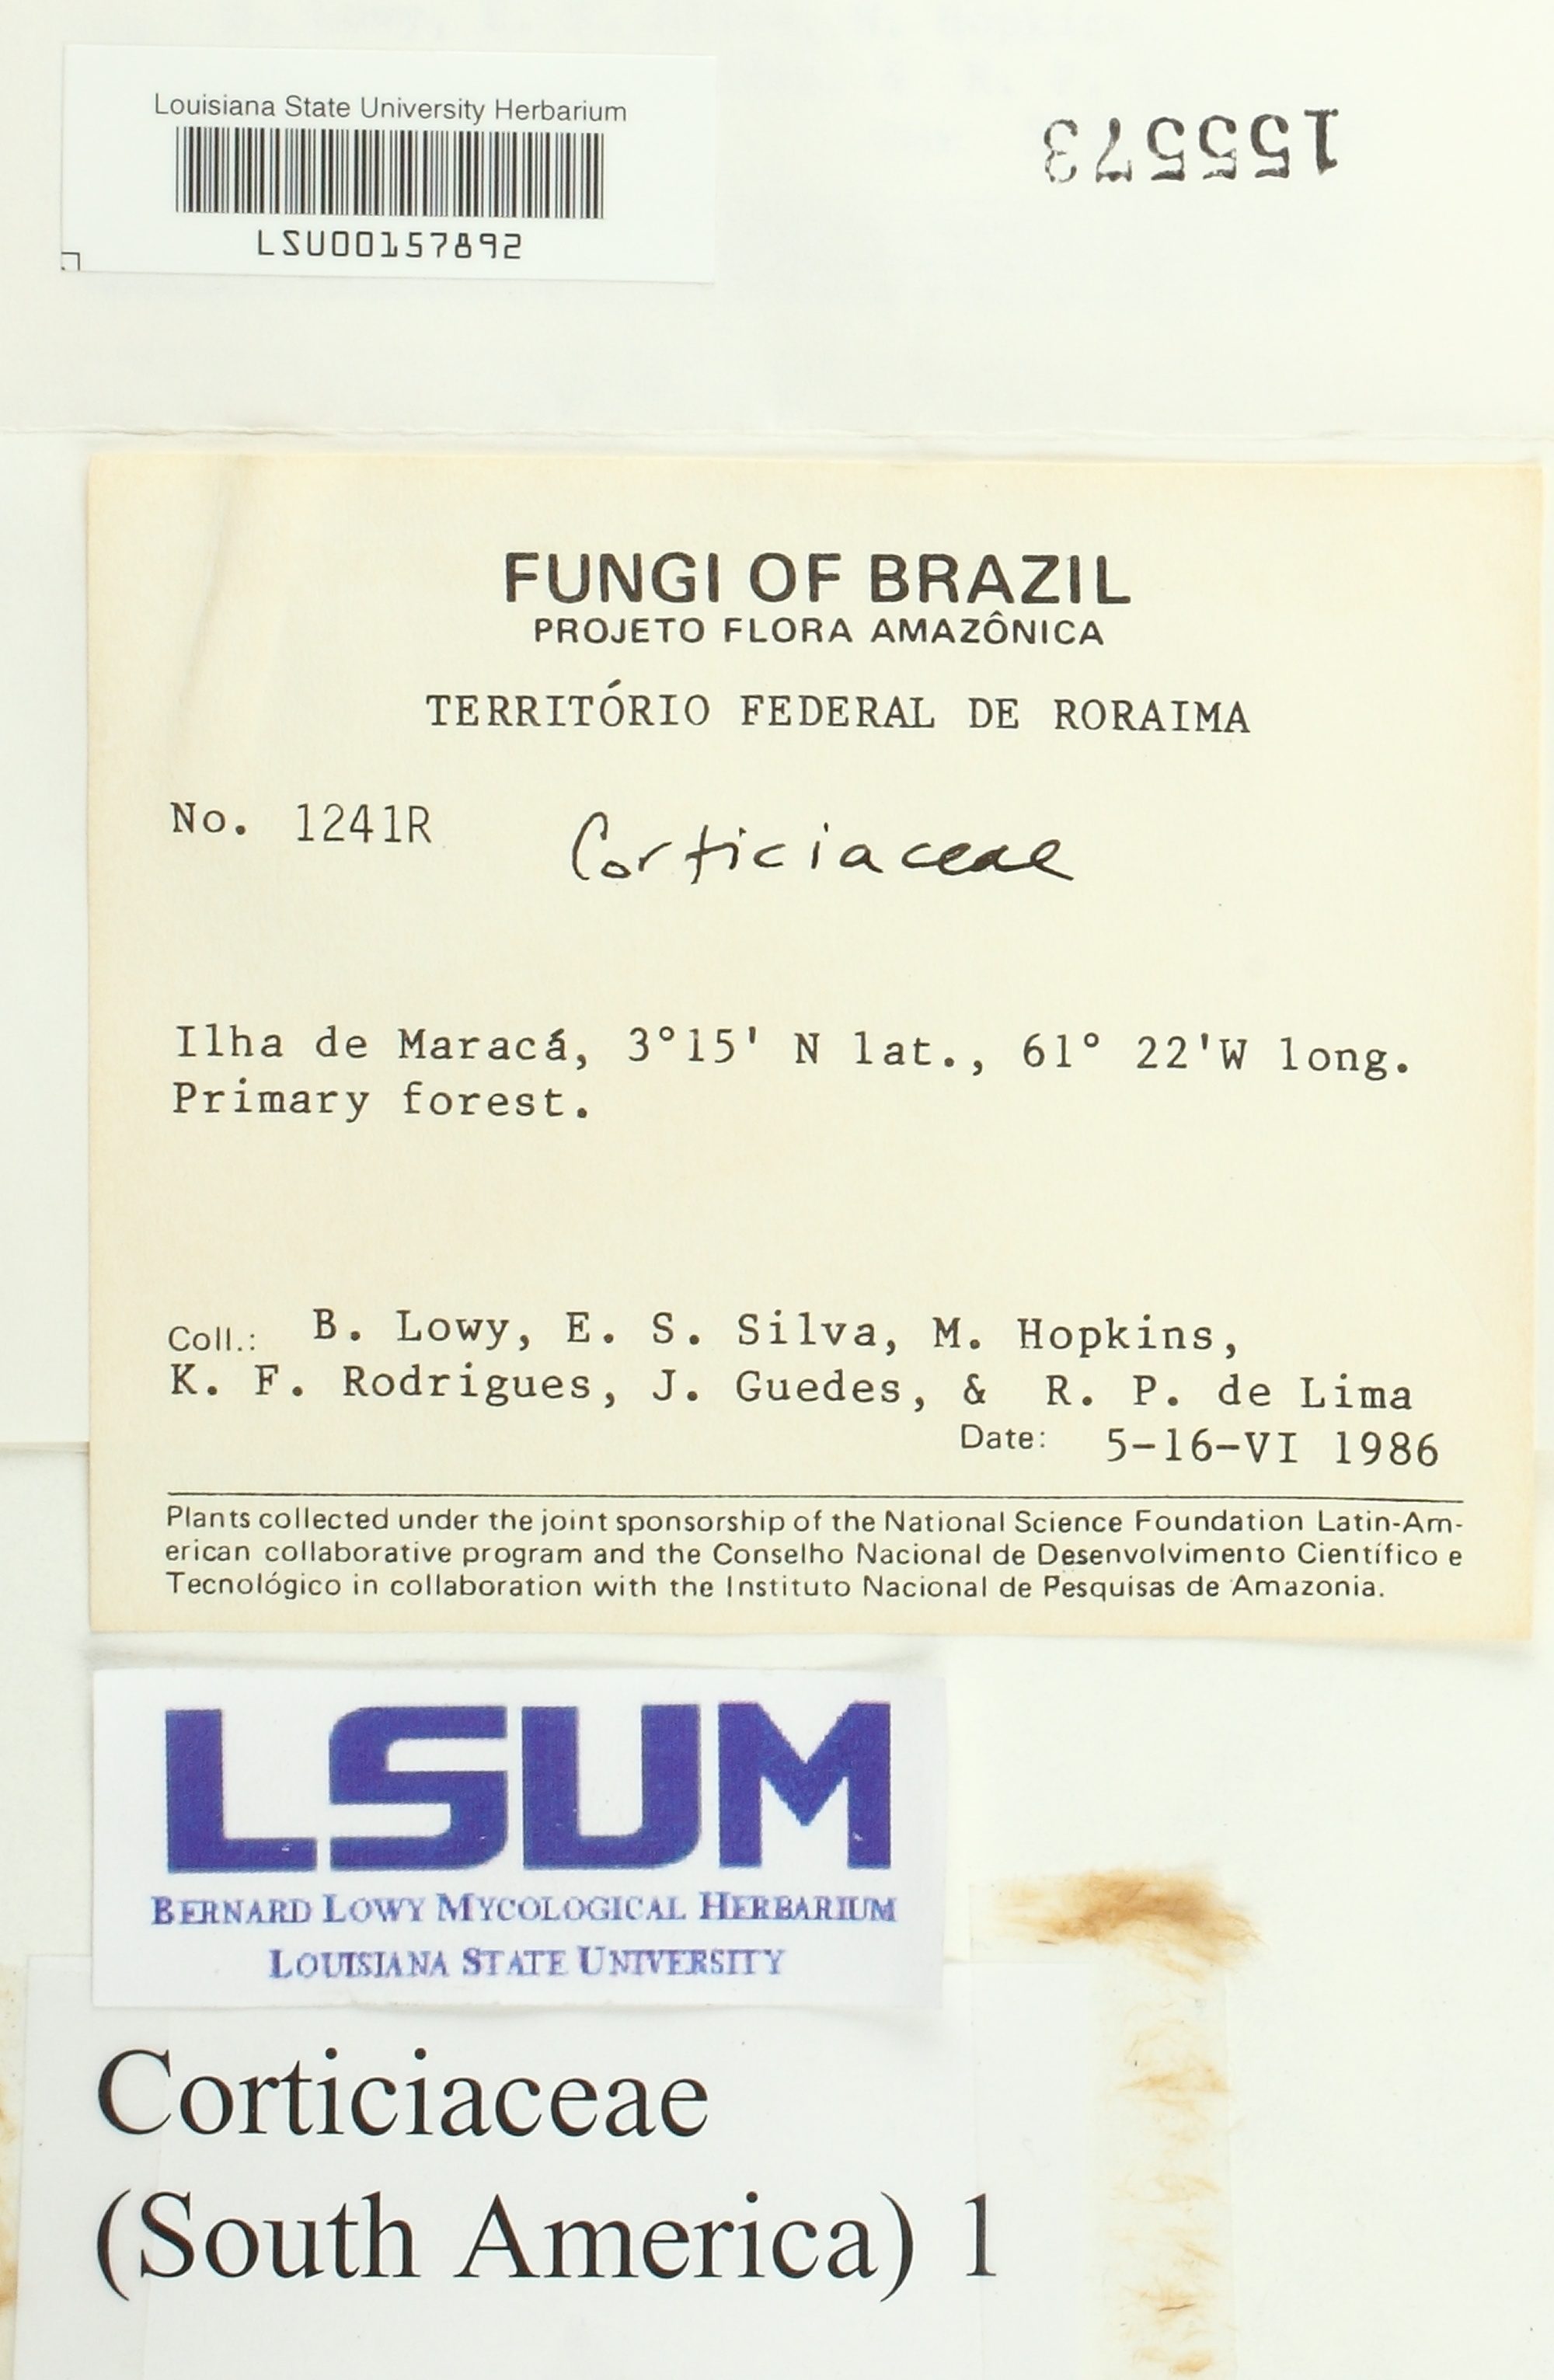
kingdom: Fungi
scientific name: Fungi
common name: Fungi
